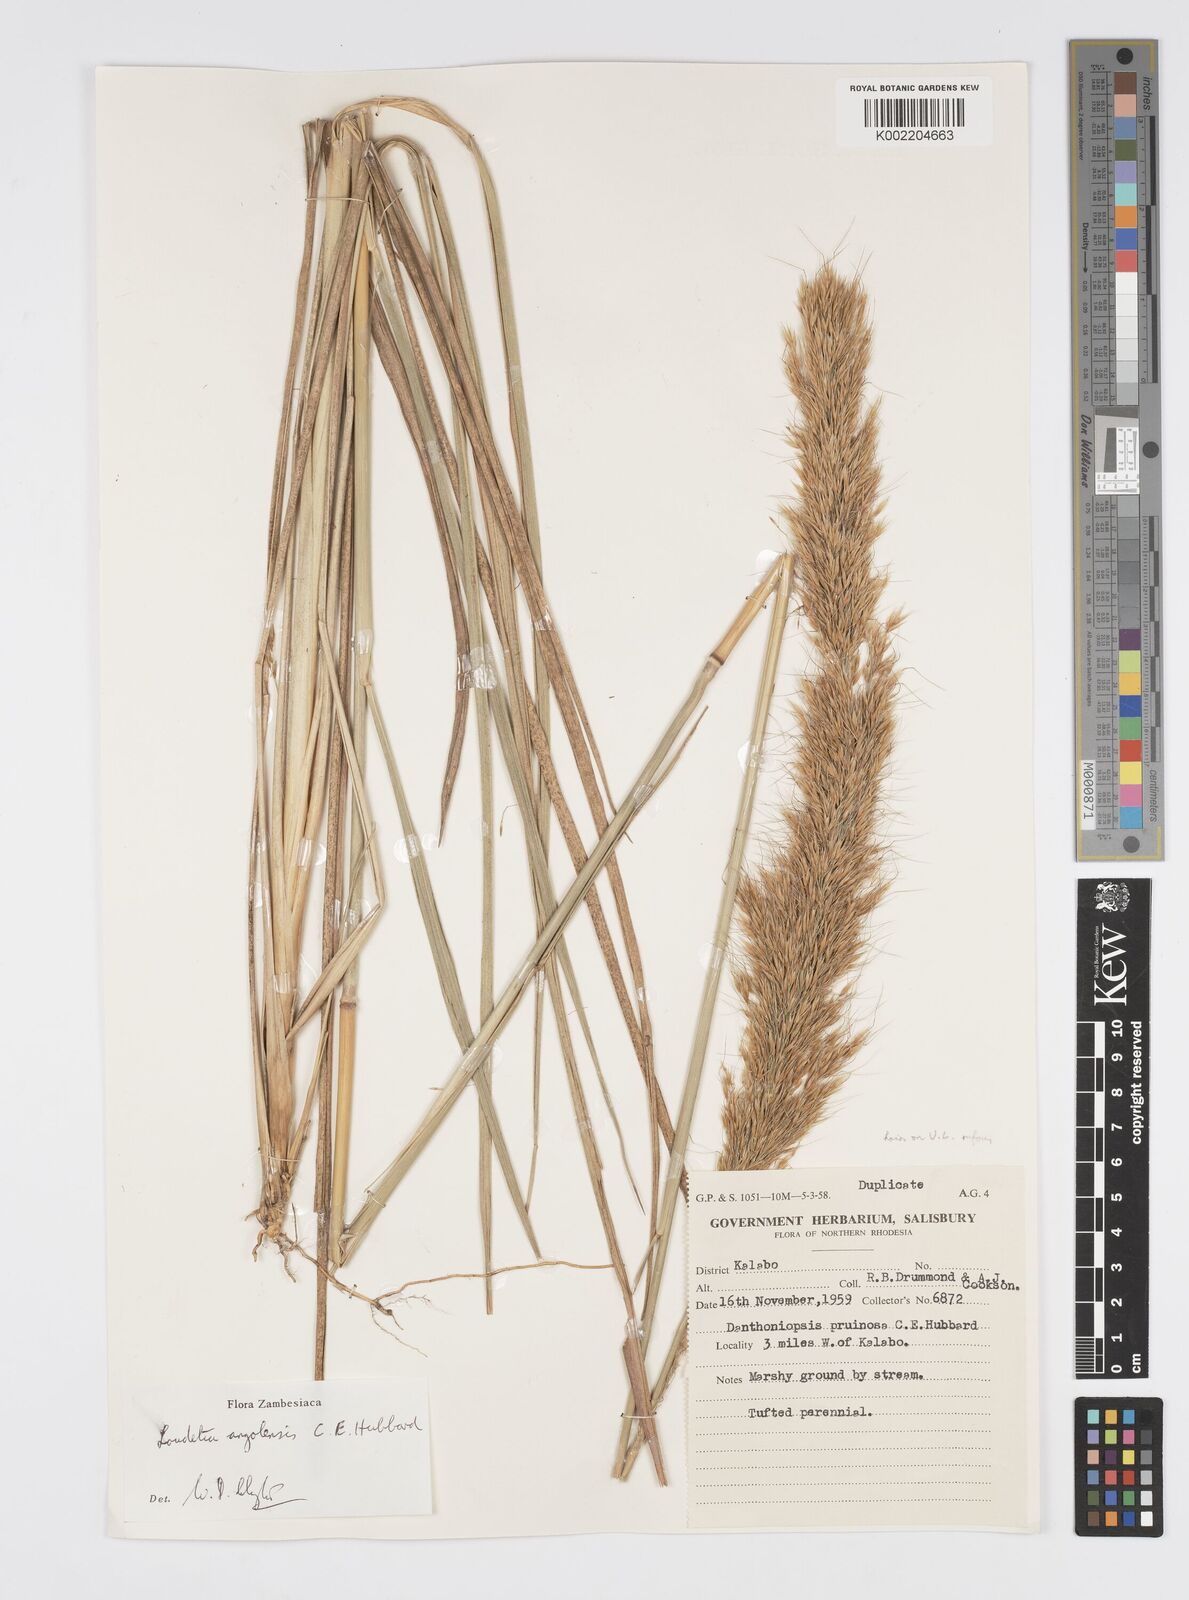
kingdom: Plantae
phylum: Tracheophyta
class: Liliopsida
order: Poales
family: Poaceae
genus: Loudetia
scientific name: Loudetia angolensis
